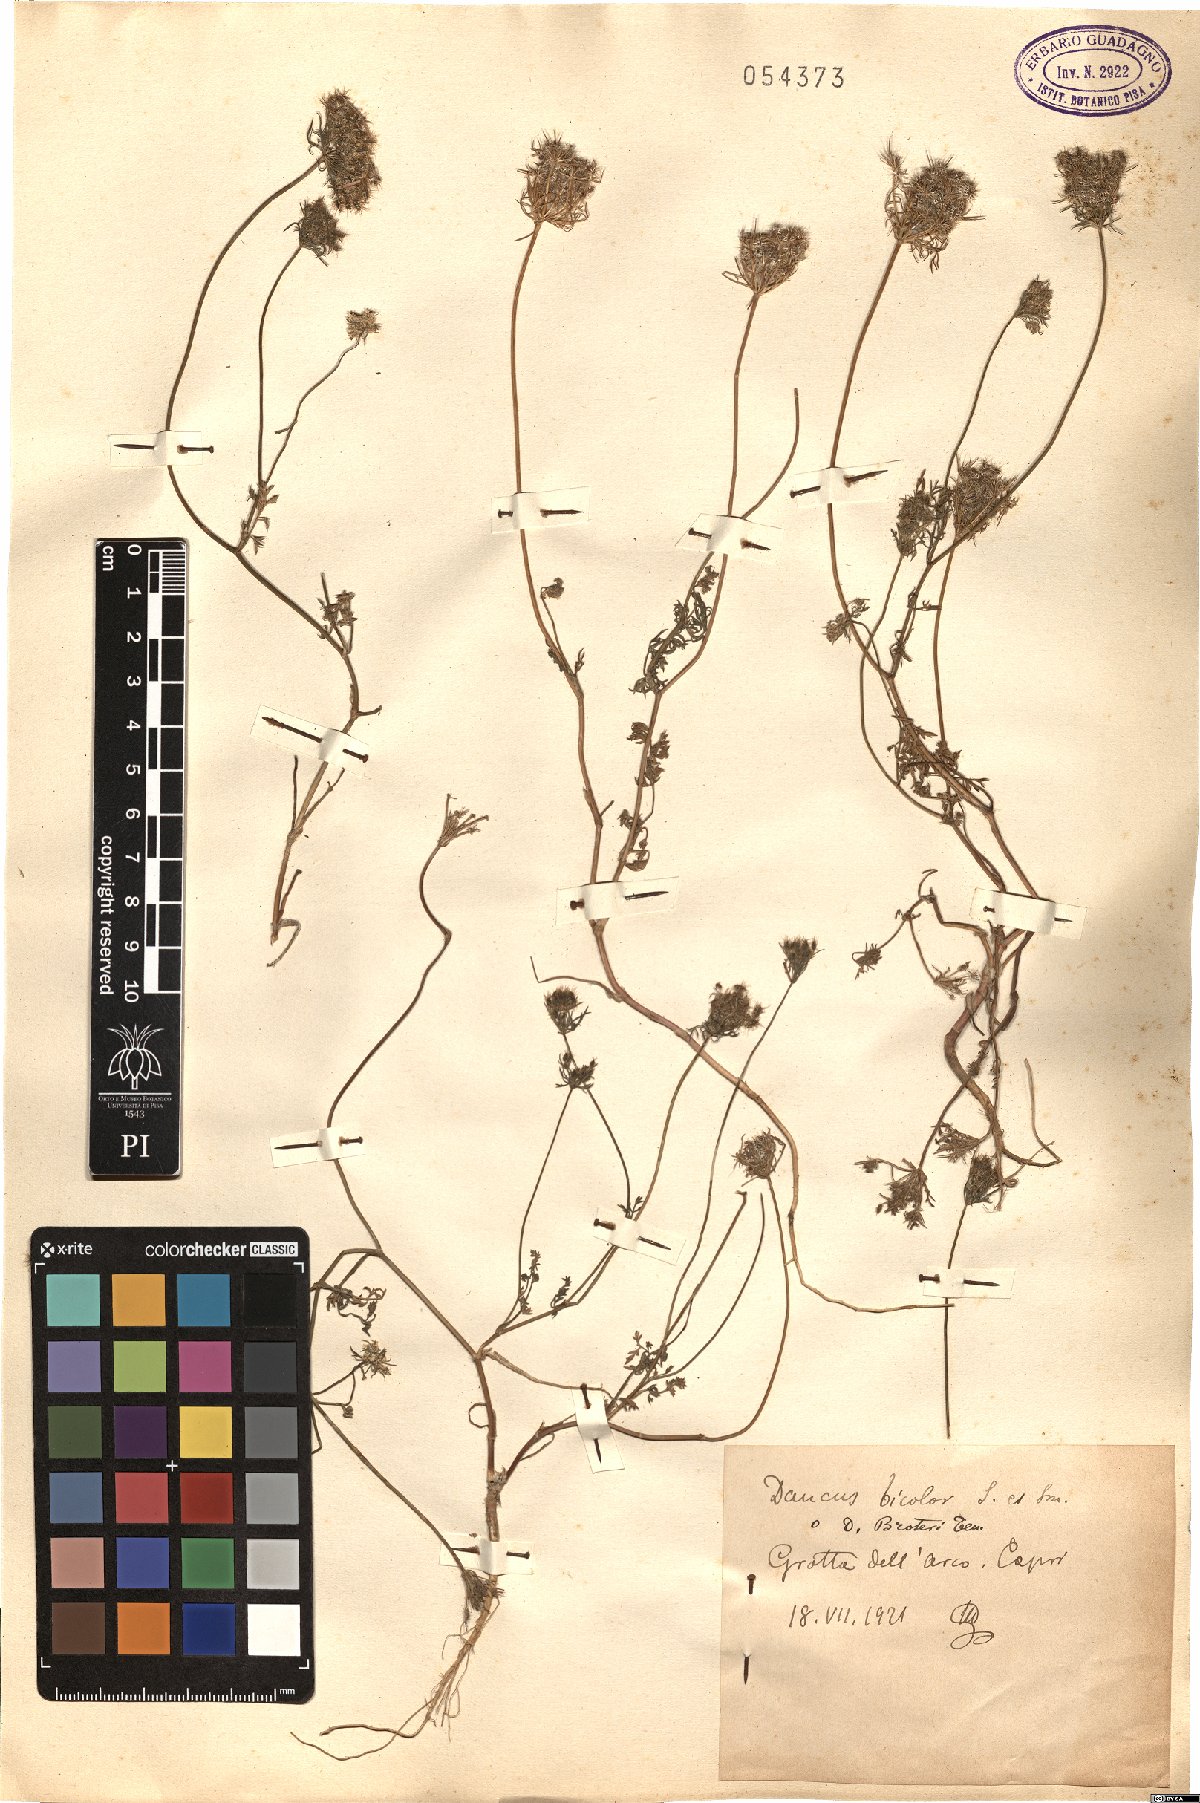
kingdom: Plantae
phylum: Tracheophyta
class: Magnoliopsida
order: Apiales
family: Apiaceae
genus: Daucus
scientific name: Daucus guttatus
